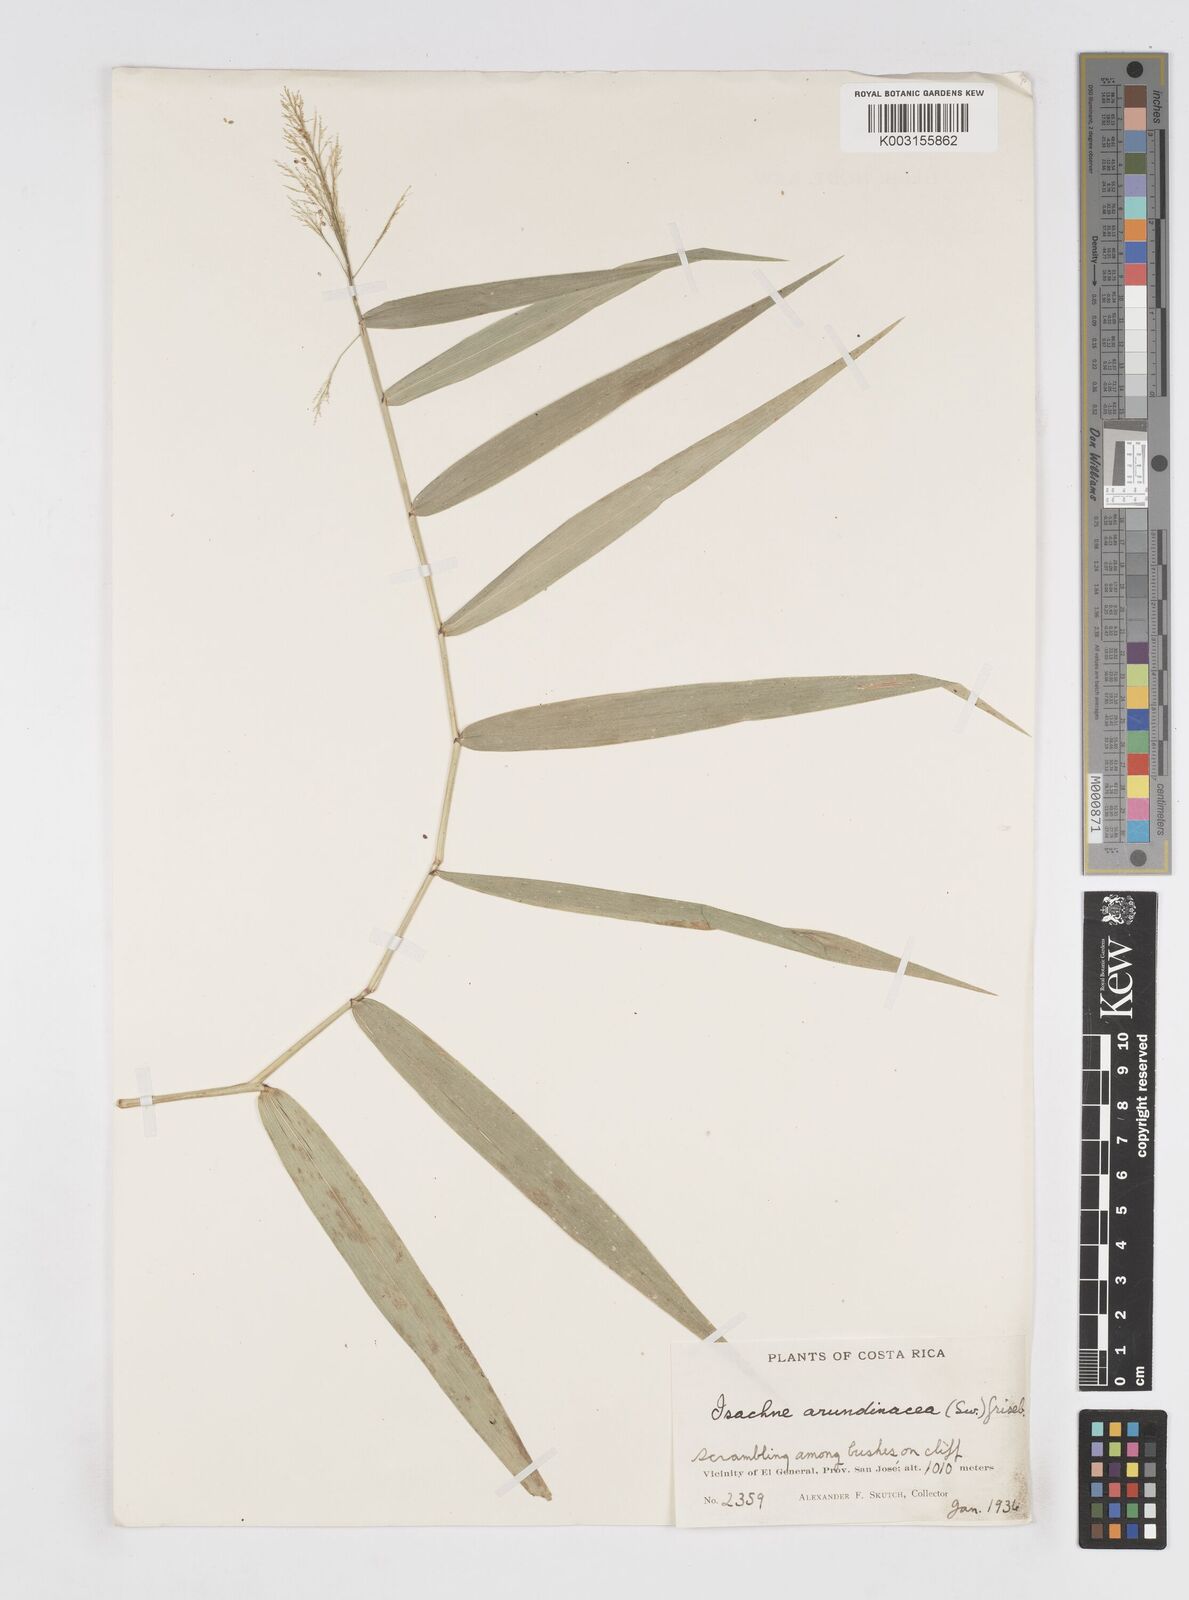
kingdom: Plantae
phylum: Tracheophyta
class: Liliopsida
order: Poales
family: Poaceae
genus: Isachne
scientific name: Isachne arundinacea
